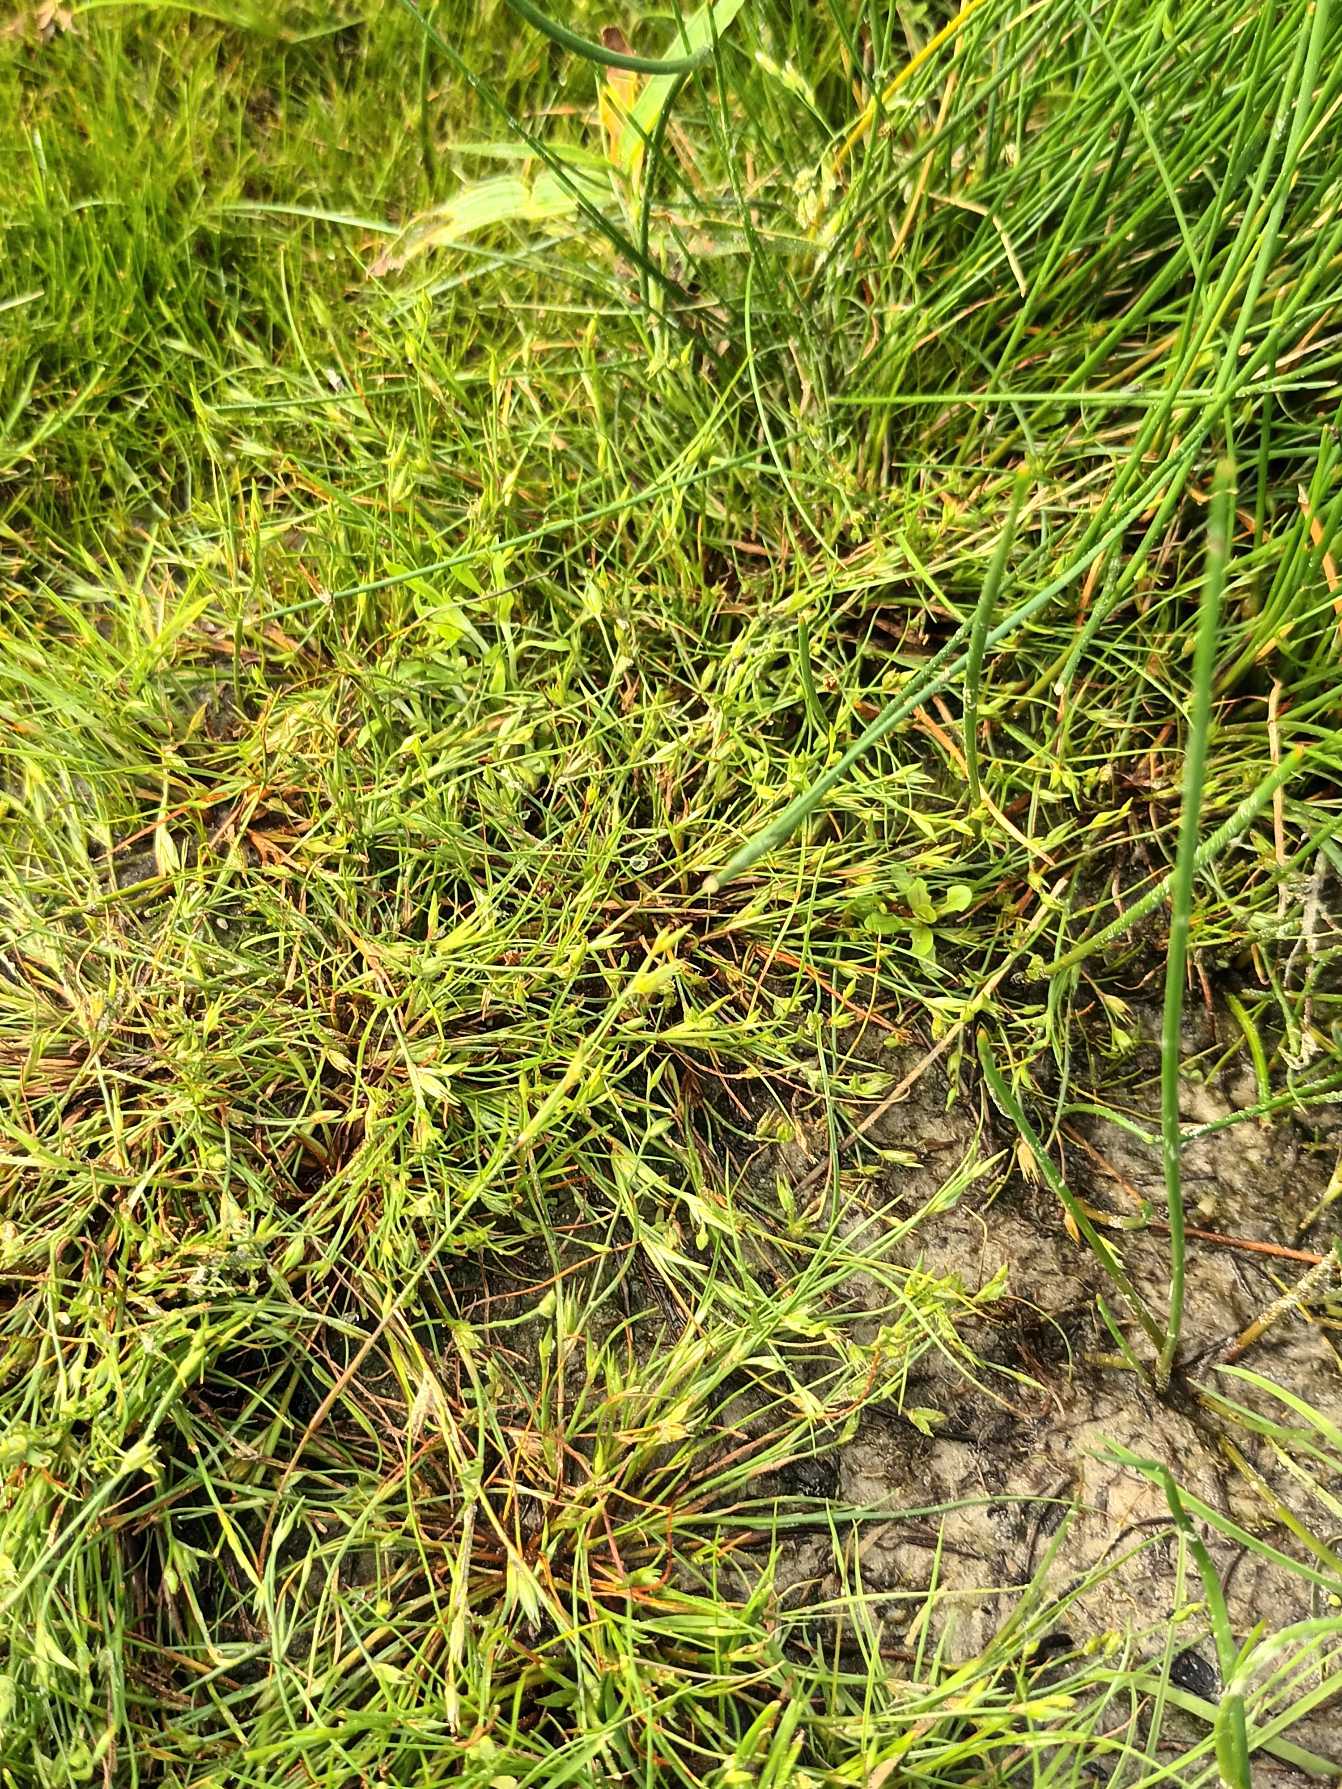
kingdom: Plantae
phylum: Tracheophyta
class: Liliopsida
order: Poales
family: Juncaceae
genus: Juncus
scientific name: Juncus bufonius
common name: Tudse-siv
